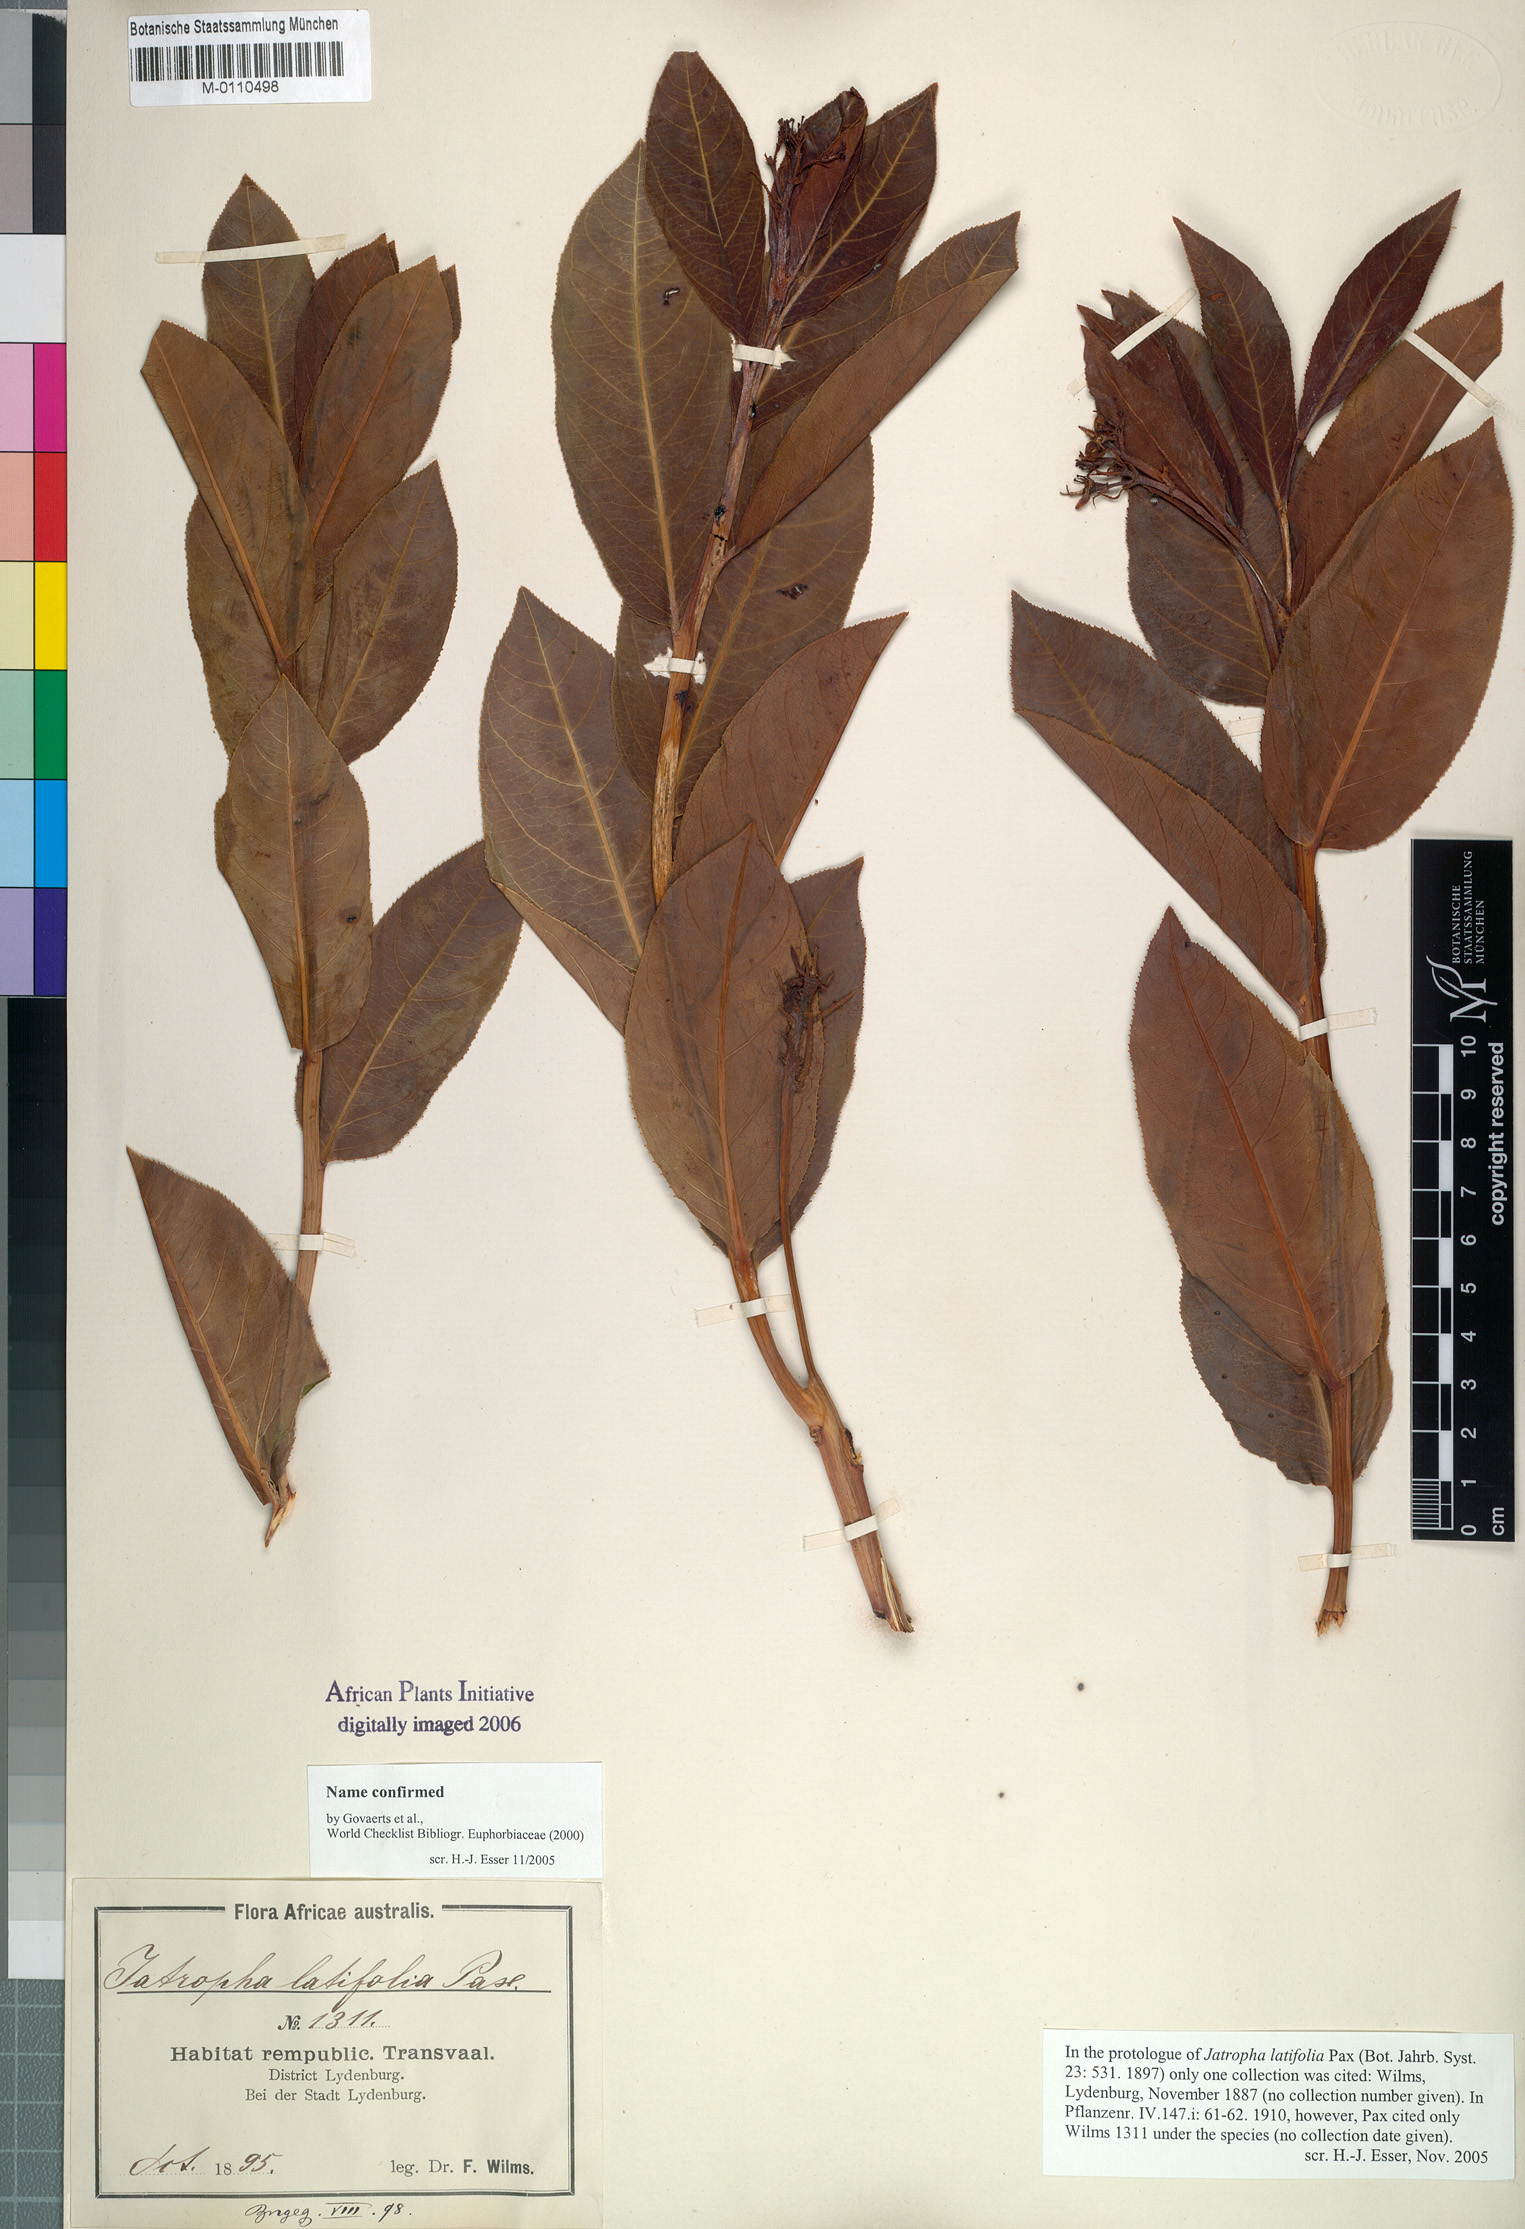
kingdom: Plantae
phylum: Tracheophyta
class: Magnoliopsida
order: Malpighiales
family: Euphorbiaceae
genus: Jatropha
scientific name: Jatropha latifolia
